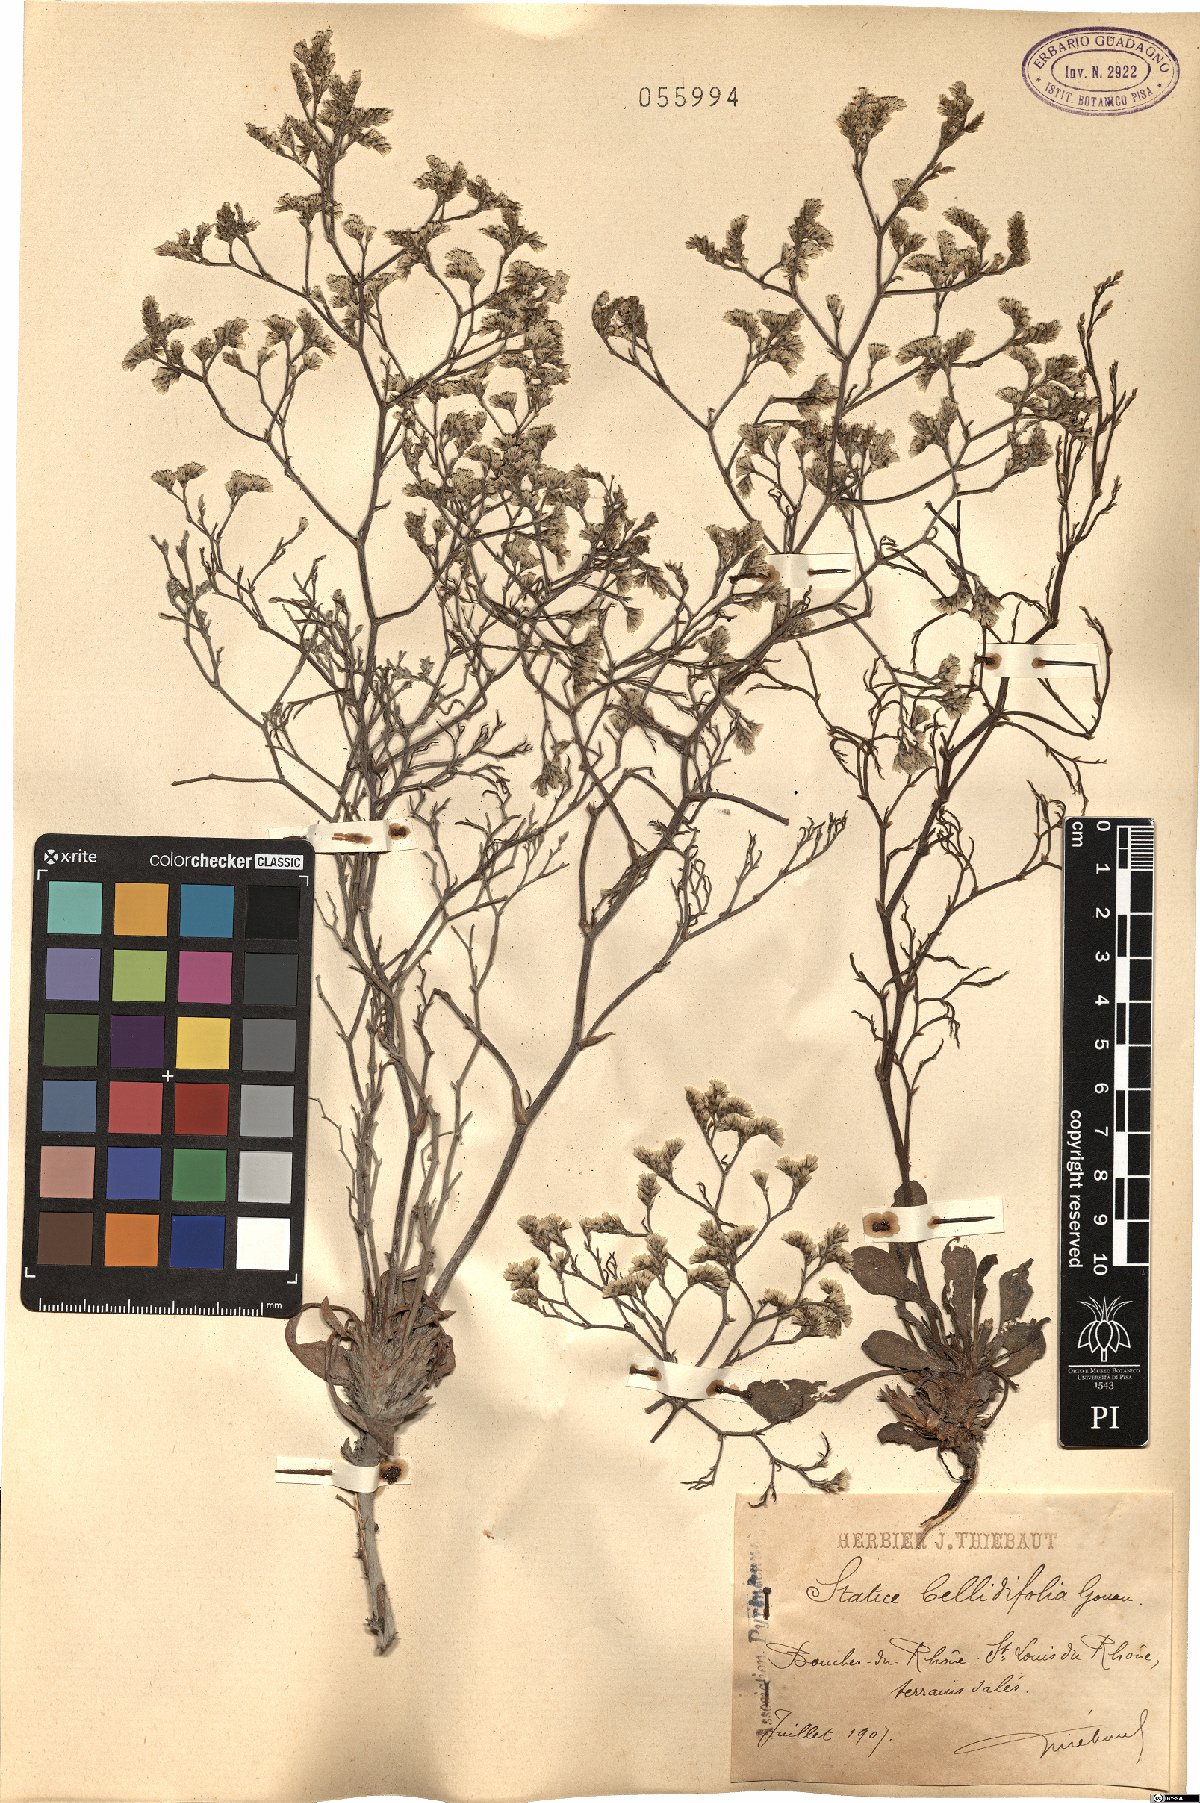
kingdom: Plantae
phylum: Tracheophyta
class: Magnoliopsida
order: Caryophyllales
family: Plumbaginaceae
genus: Limonium
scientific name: Limonium bellidifolium
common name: Matted sea-lavender
